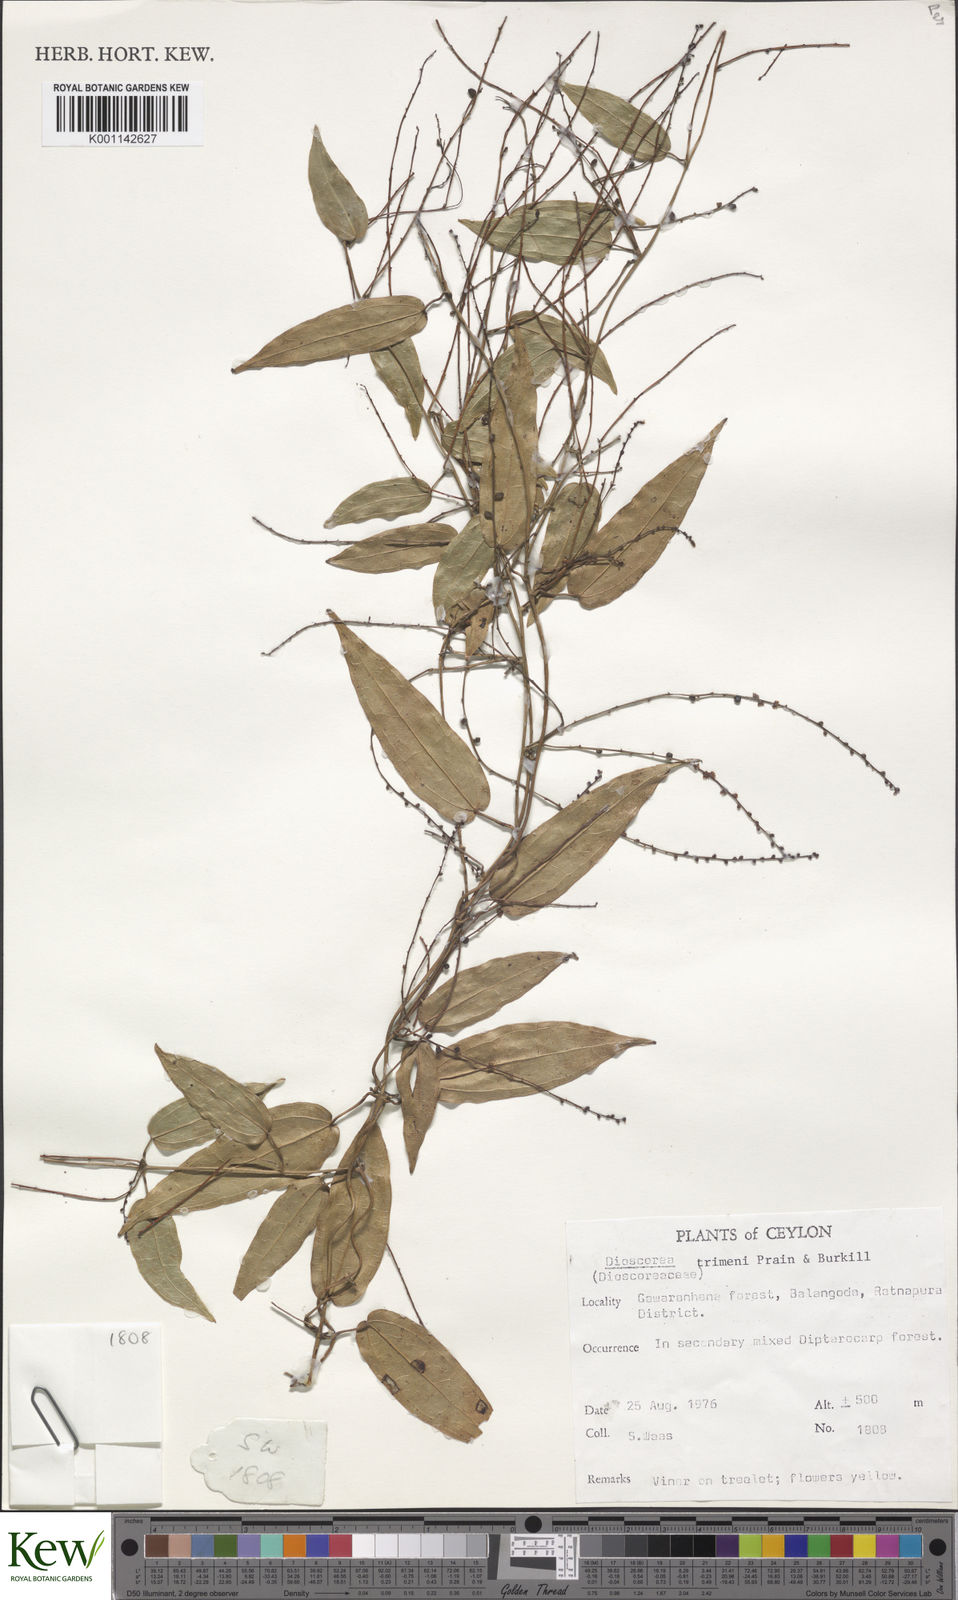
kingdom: Plantae
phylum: Tracheophyta
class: Liliopsida
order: Dioscoreales
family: Dioscoreaceae
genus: Dioscorea
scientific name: Dioscorea trimenii
